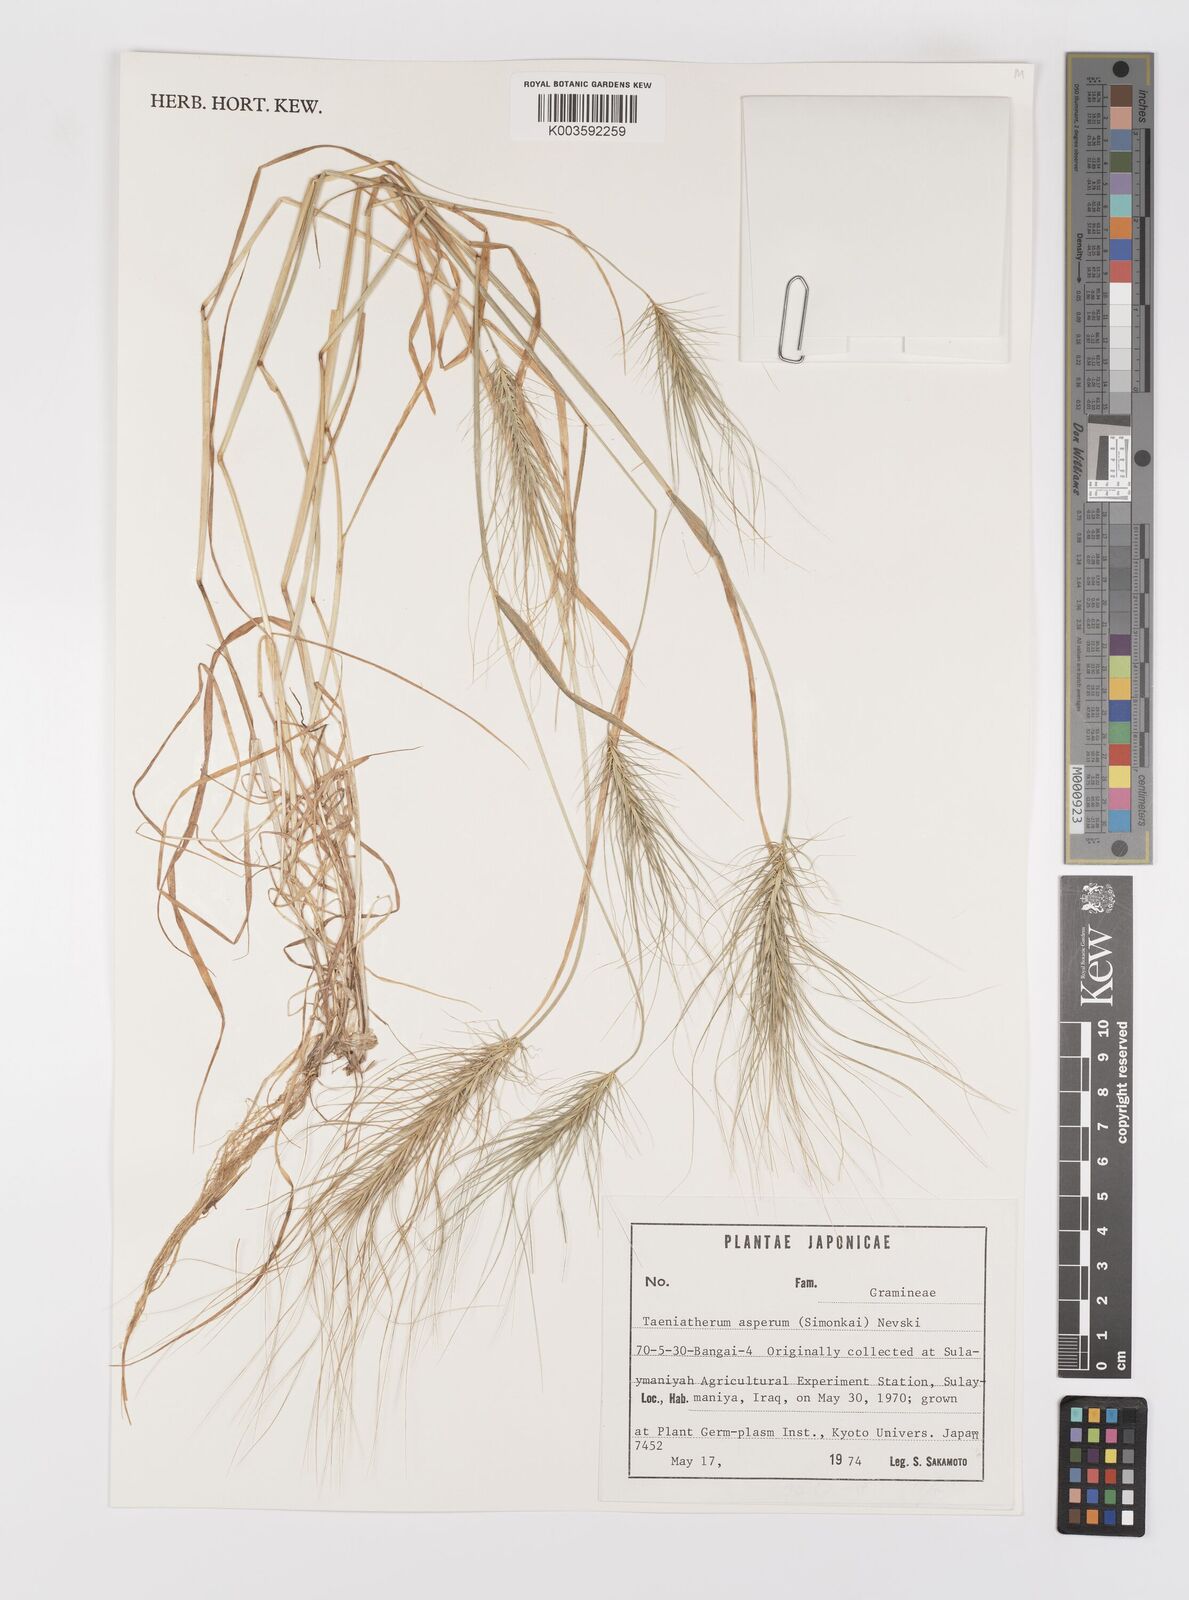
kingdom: Plantae
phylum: Tracheophyta
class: Liliopsida
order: Poales
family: Poaceae
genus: Taeniatherum
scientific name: Taeniatherum caput-medusae
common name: Medusahead
